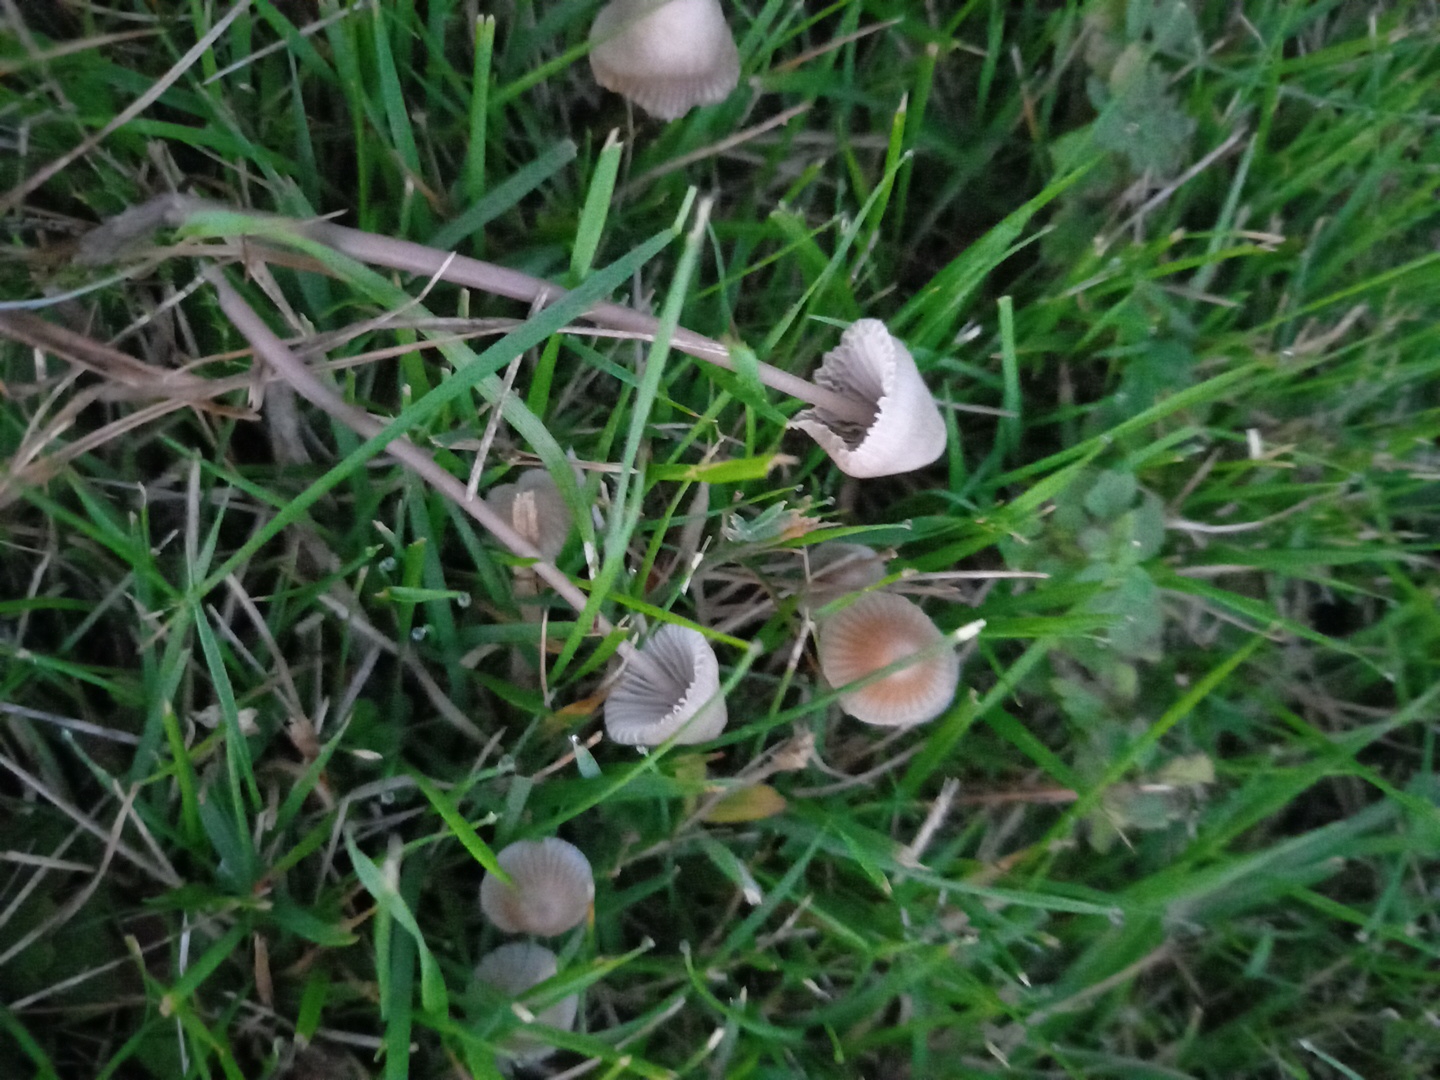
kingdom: Fungi
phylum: Basidiomycota
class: Agaricomycetes
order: Agaricales
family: Mycenaceae
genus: Mycena
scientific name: Mycena leptocephala
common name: klor-huesvamp
